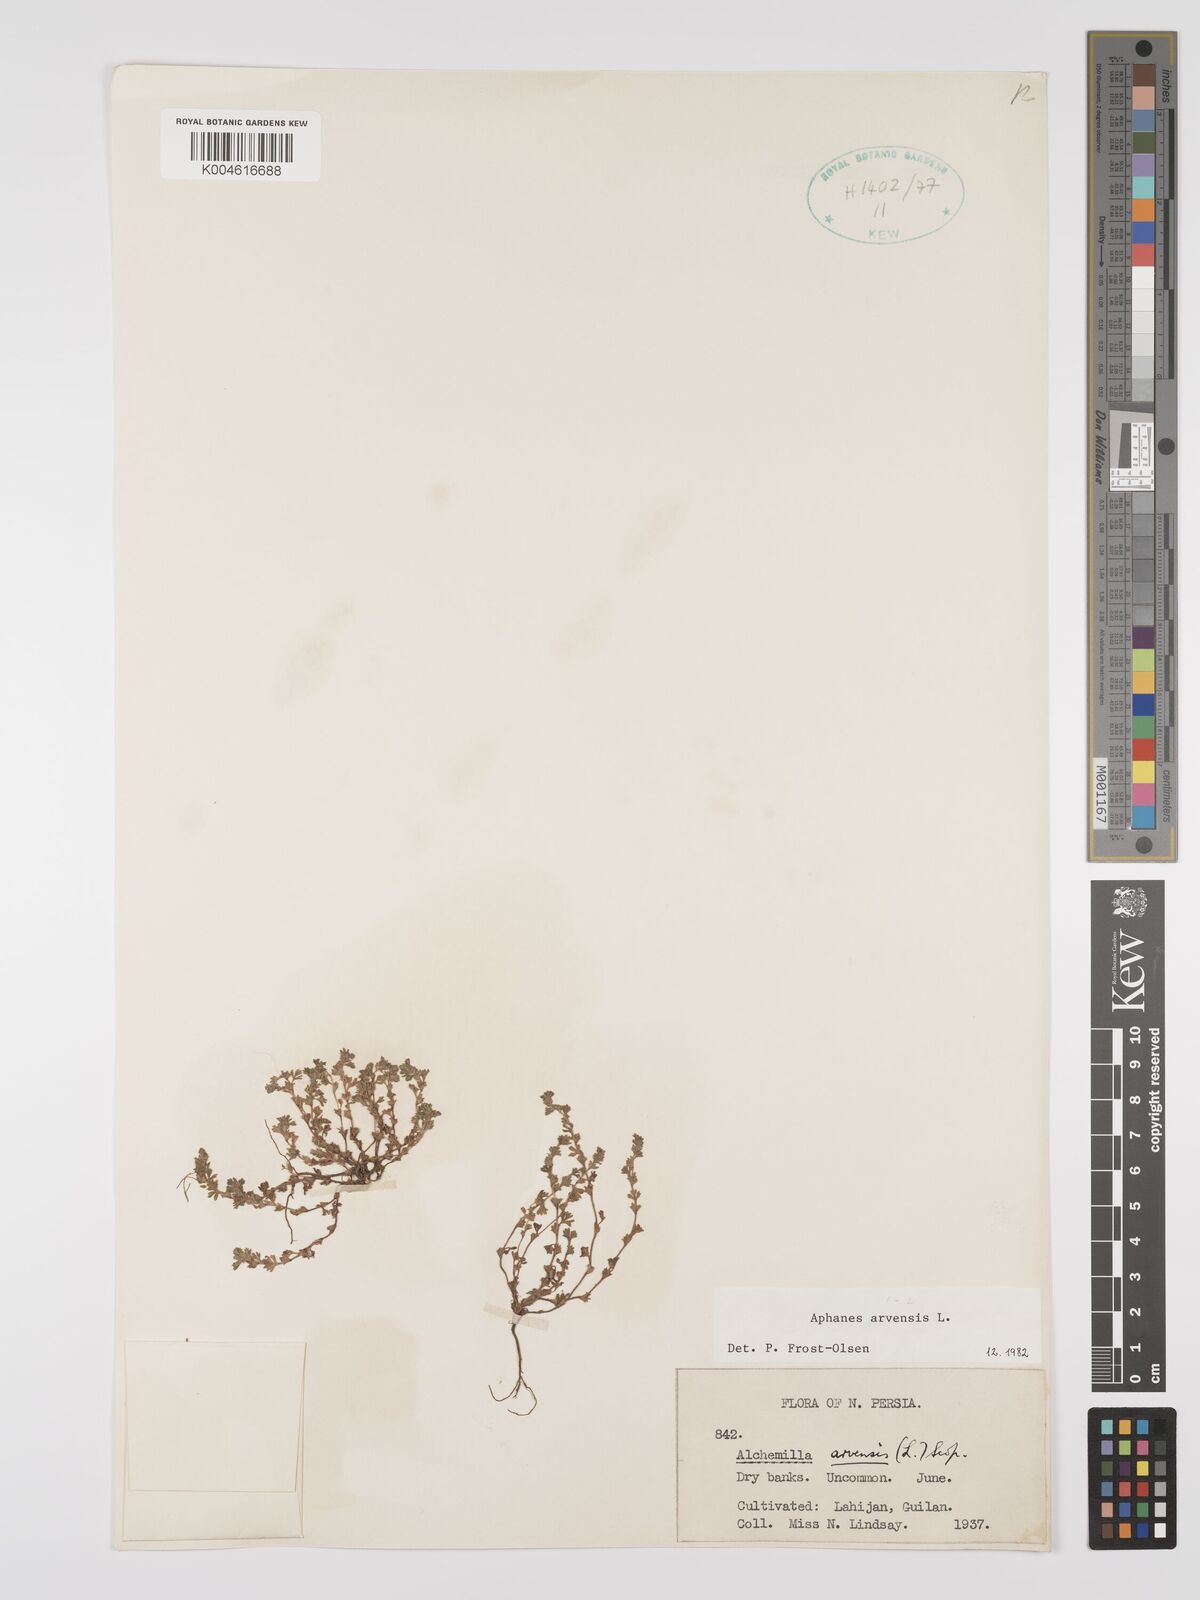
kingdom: Plantae
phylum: Tracheophyta
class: Magnoliopsida
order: Rosales
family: Rosaceae
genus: Aphanes
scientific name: Aphanes arvensis
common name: Parsley-piert
